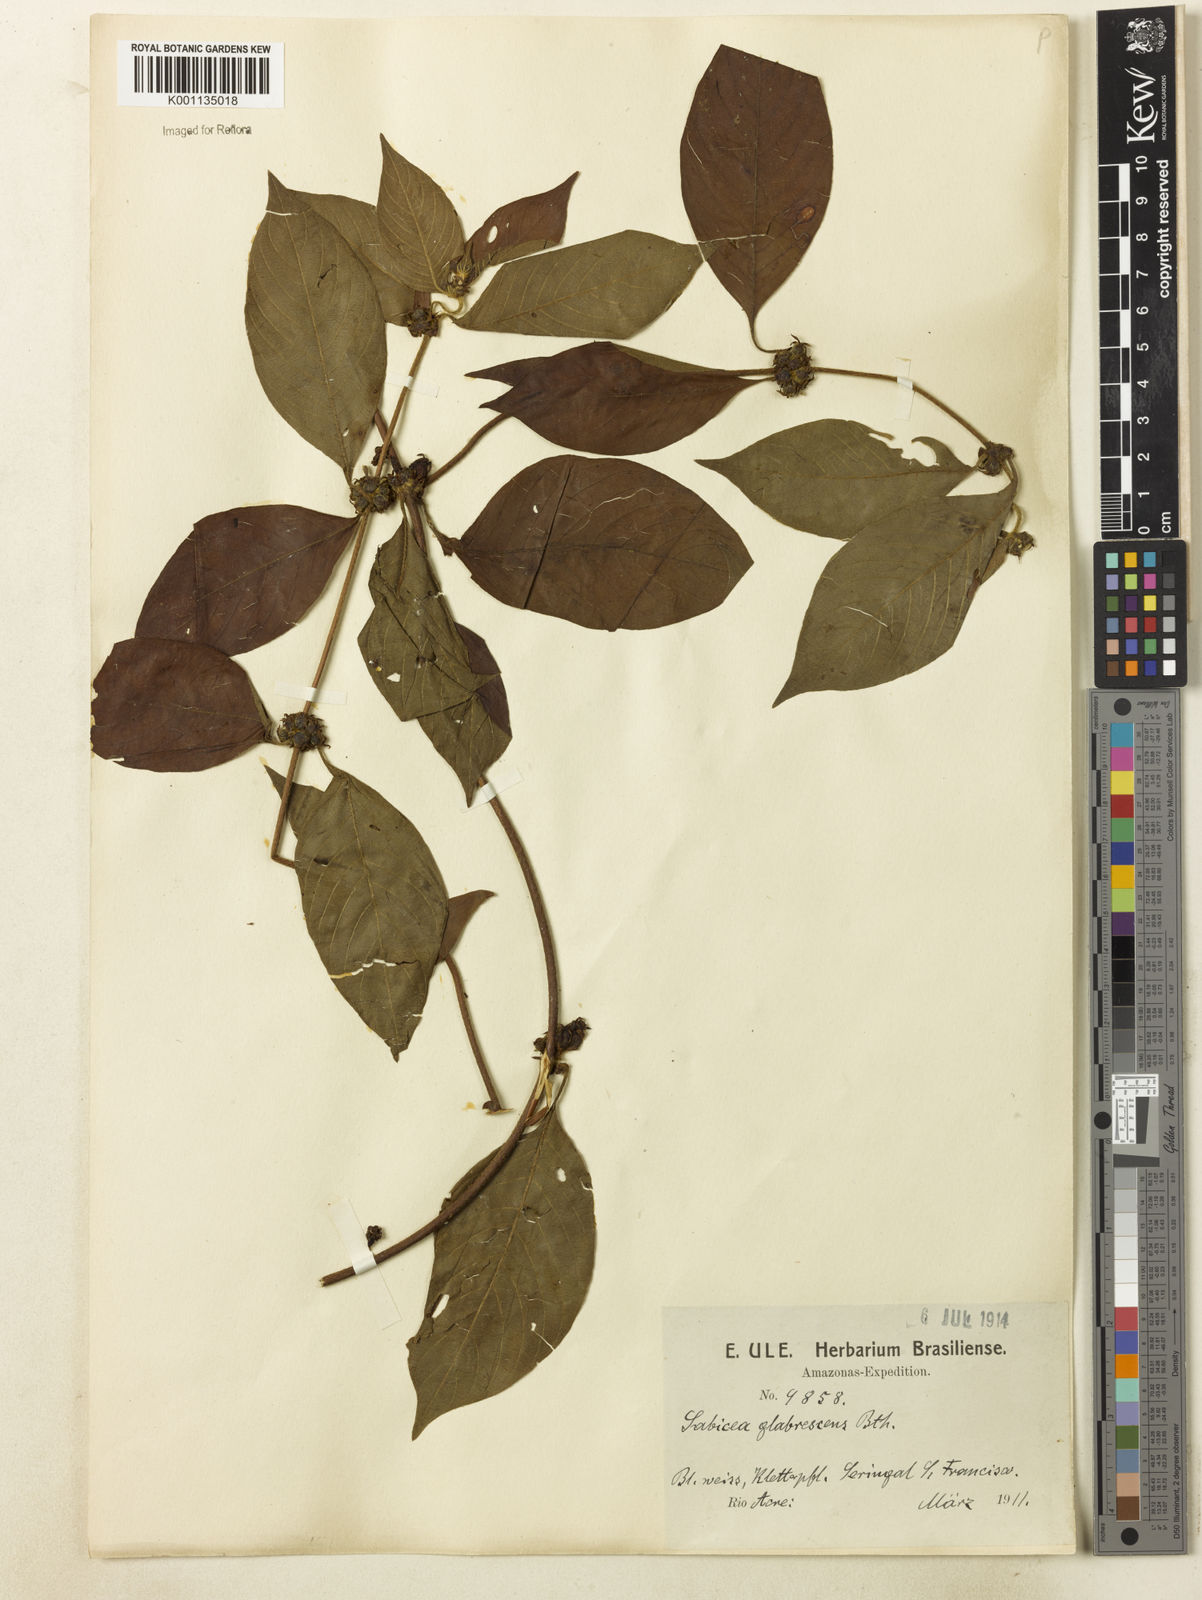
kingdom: Plantae
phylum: Tracheophyta
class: Magnoliopsida
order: Gentianales
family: Rubiaceae
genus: Sabicea
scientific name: Sabicea glabrescens
